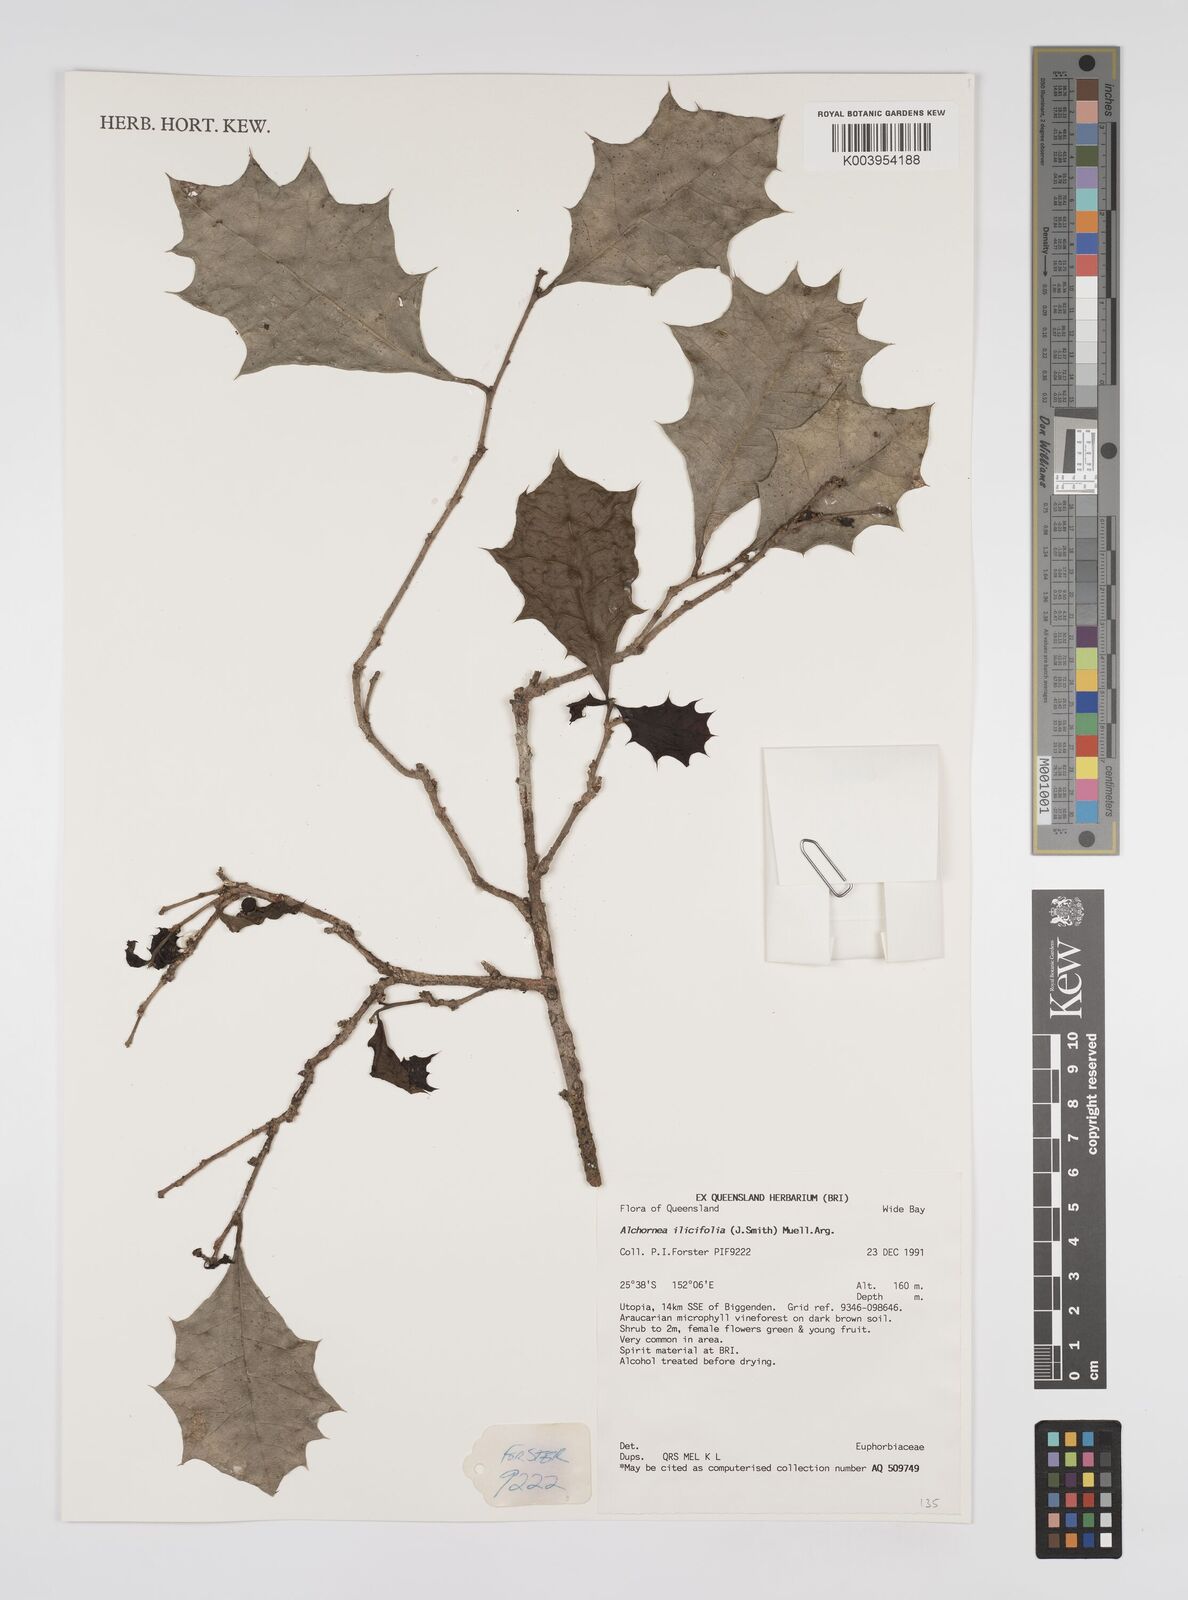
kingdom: Plantae
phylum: Tracheophyta
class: Magnoliopsida
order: Malpighiales
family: Euphorbiaceae
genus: Alchornea
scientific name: Alchornea ilicifolia
